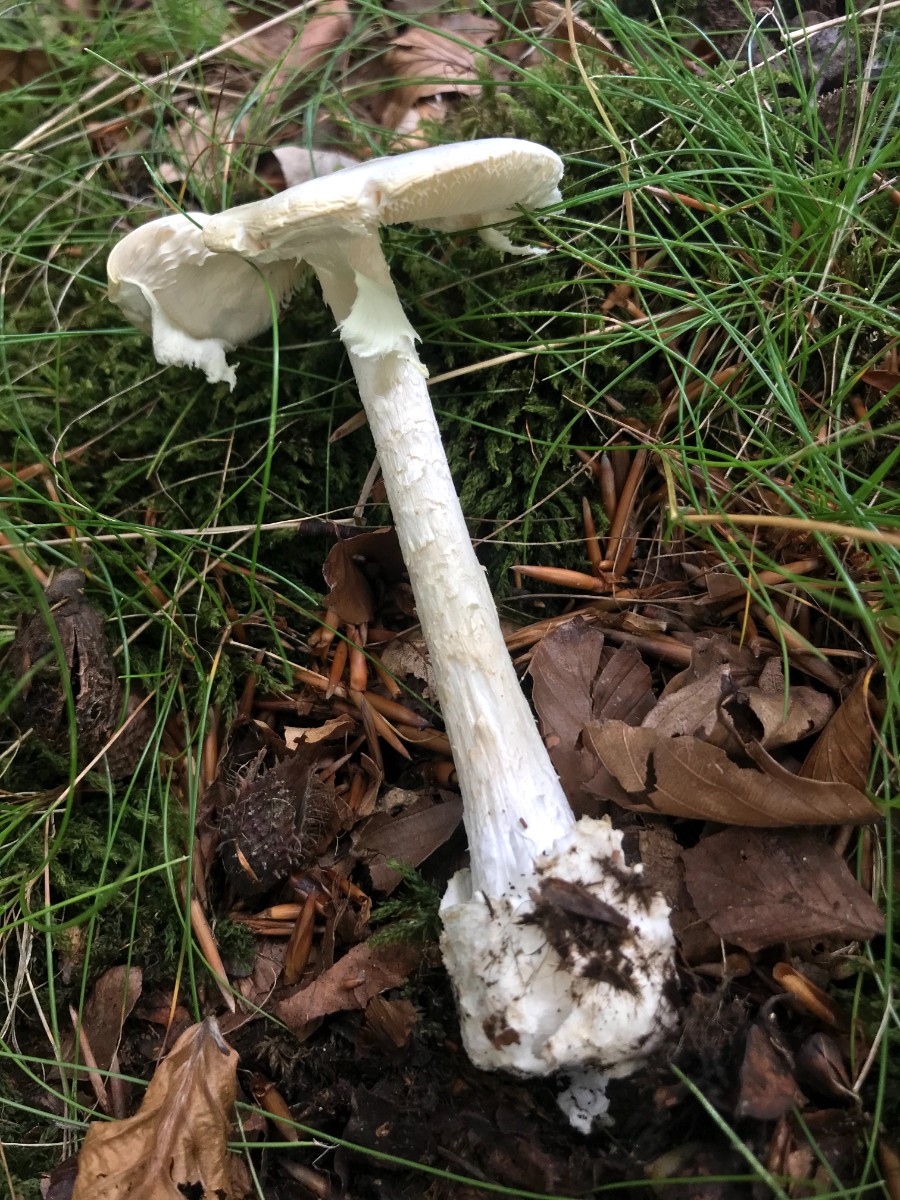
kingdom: Fungi
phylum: Basidiomycota
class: Agaricomycetes
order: Agaricales
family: Amanitaceae
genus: Amanita
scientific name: Amanita virosa
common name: snehvid fluesvamp
